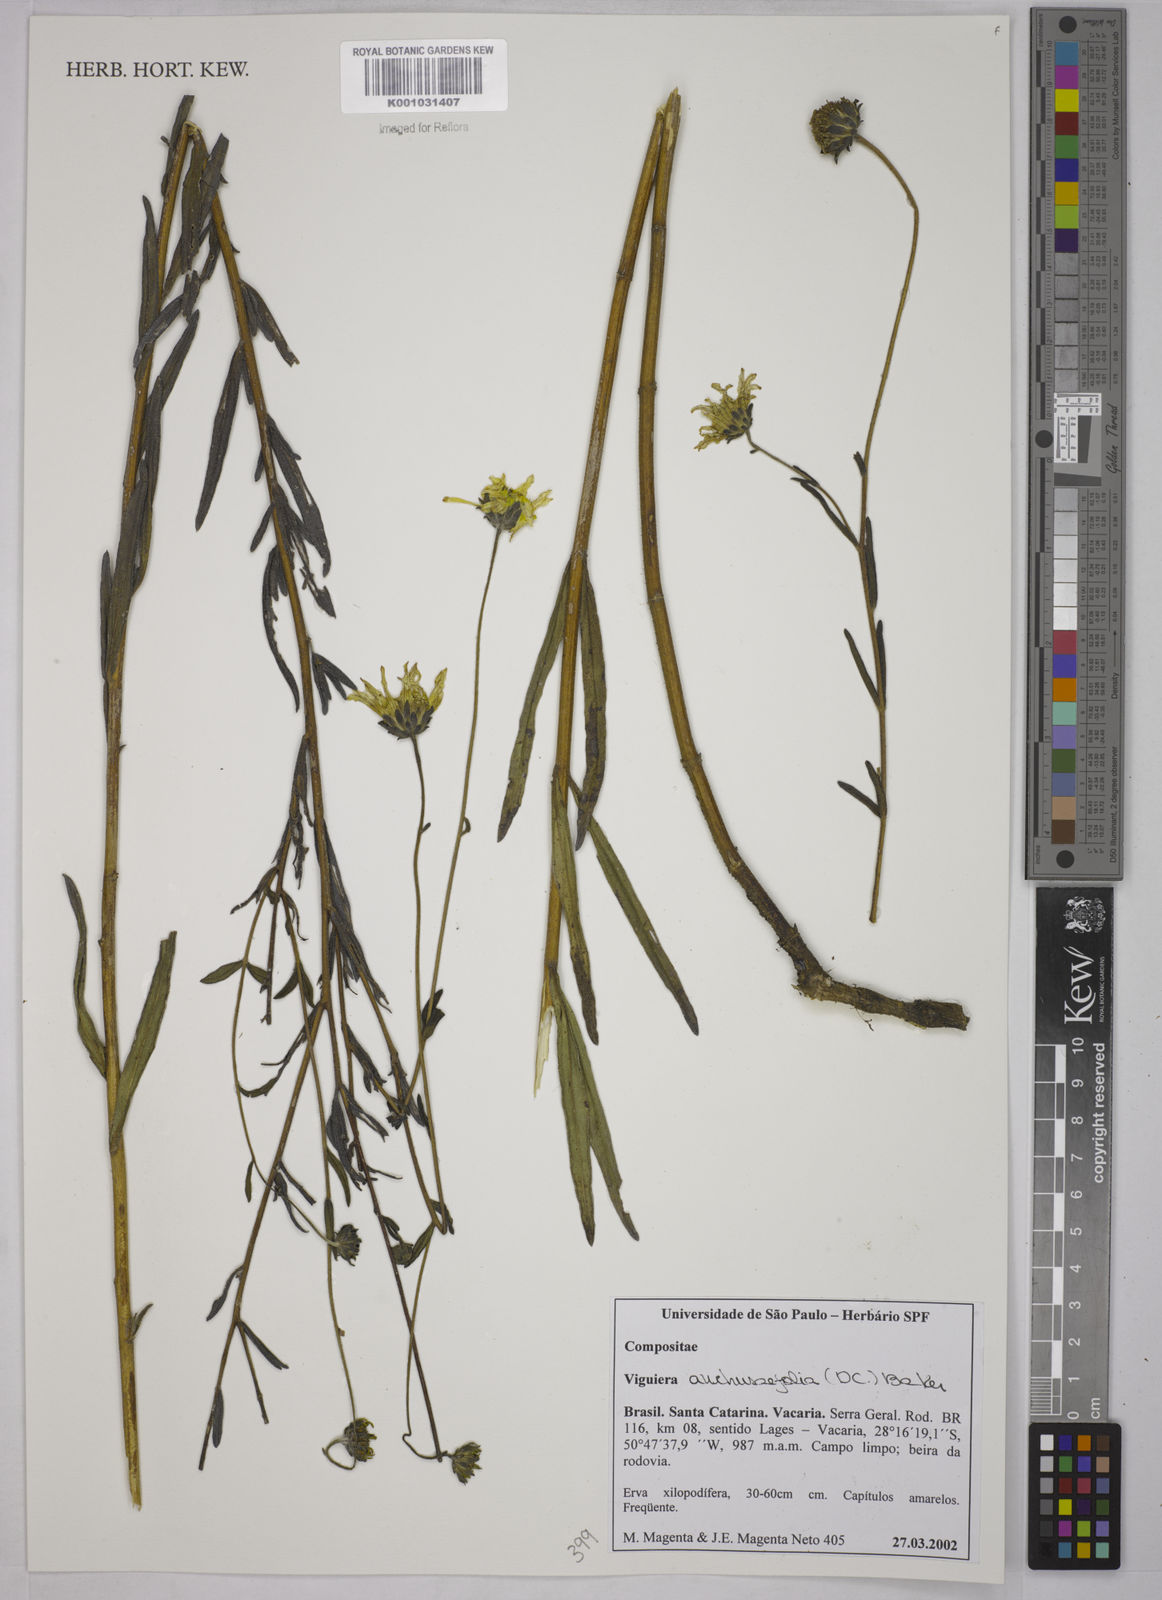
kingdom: Plantae
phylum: Tracheophyta
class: Magnoliopsida
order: Asterales
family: Asteraceae
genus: Viguiera
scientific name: Viguiera
